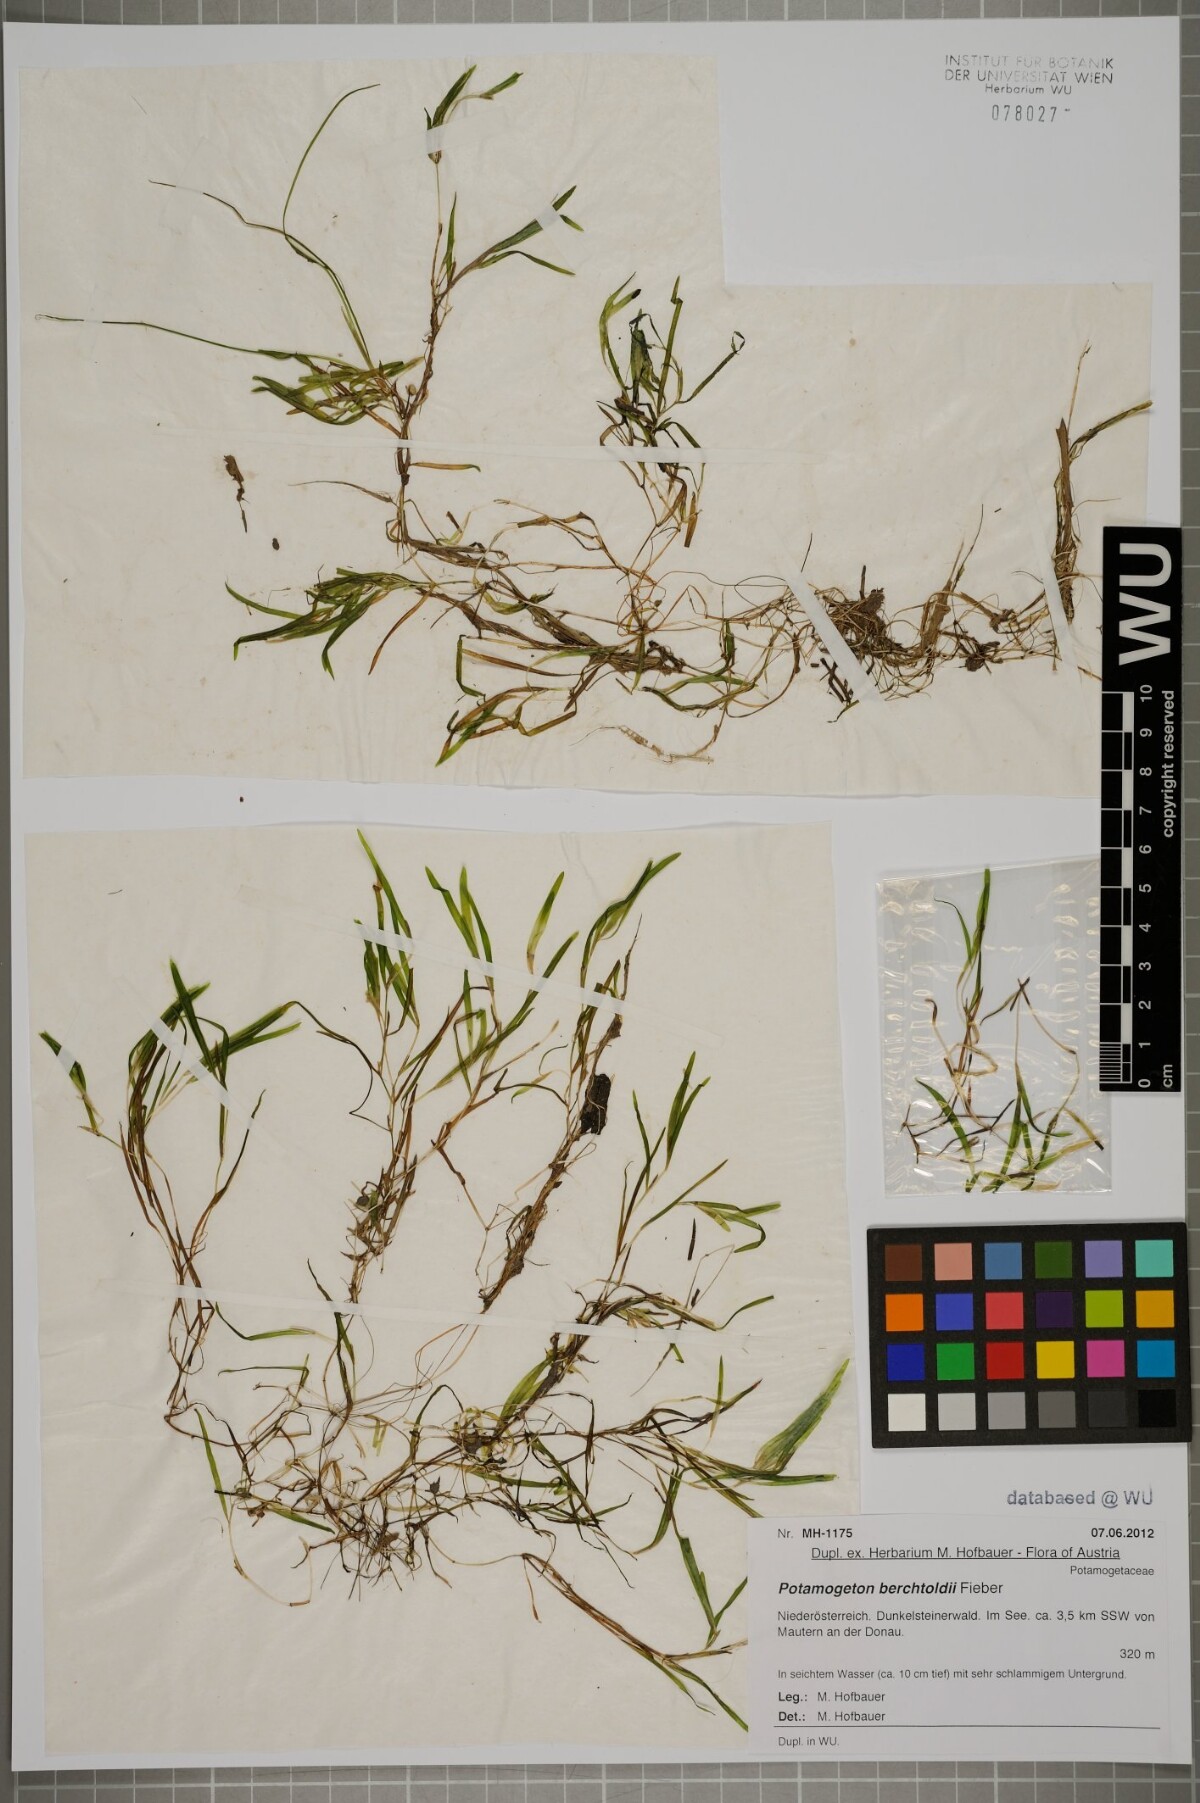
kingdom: Plantae
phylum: Tracheophyta
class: Liliopsida
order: Alismatales
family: Potamogetonaceae
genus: Potamogeton
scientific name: Potamogeton berchtoldii
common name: Small pondweed
